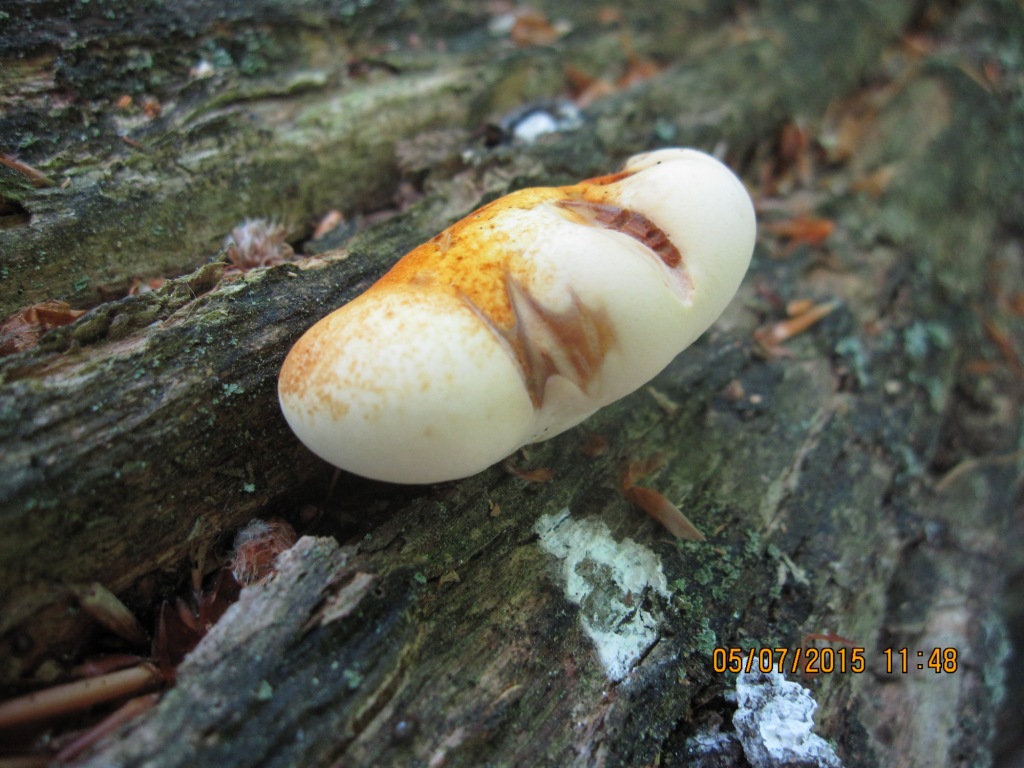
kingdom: Fungi
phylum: Basidiomycota
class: Agaricomycetes
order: Polyporales
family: Fomitopsidaceae
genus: Buglossoporus
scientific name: Buglossoporus quercinus
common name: egetunge
